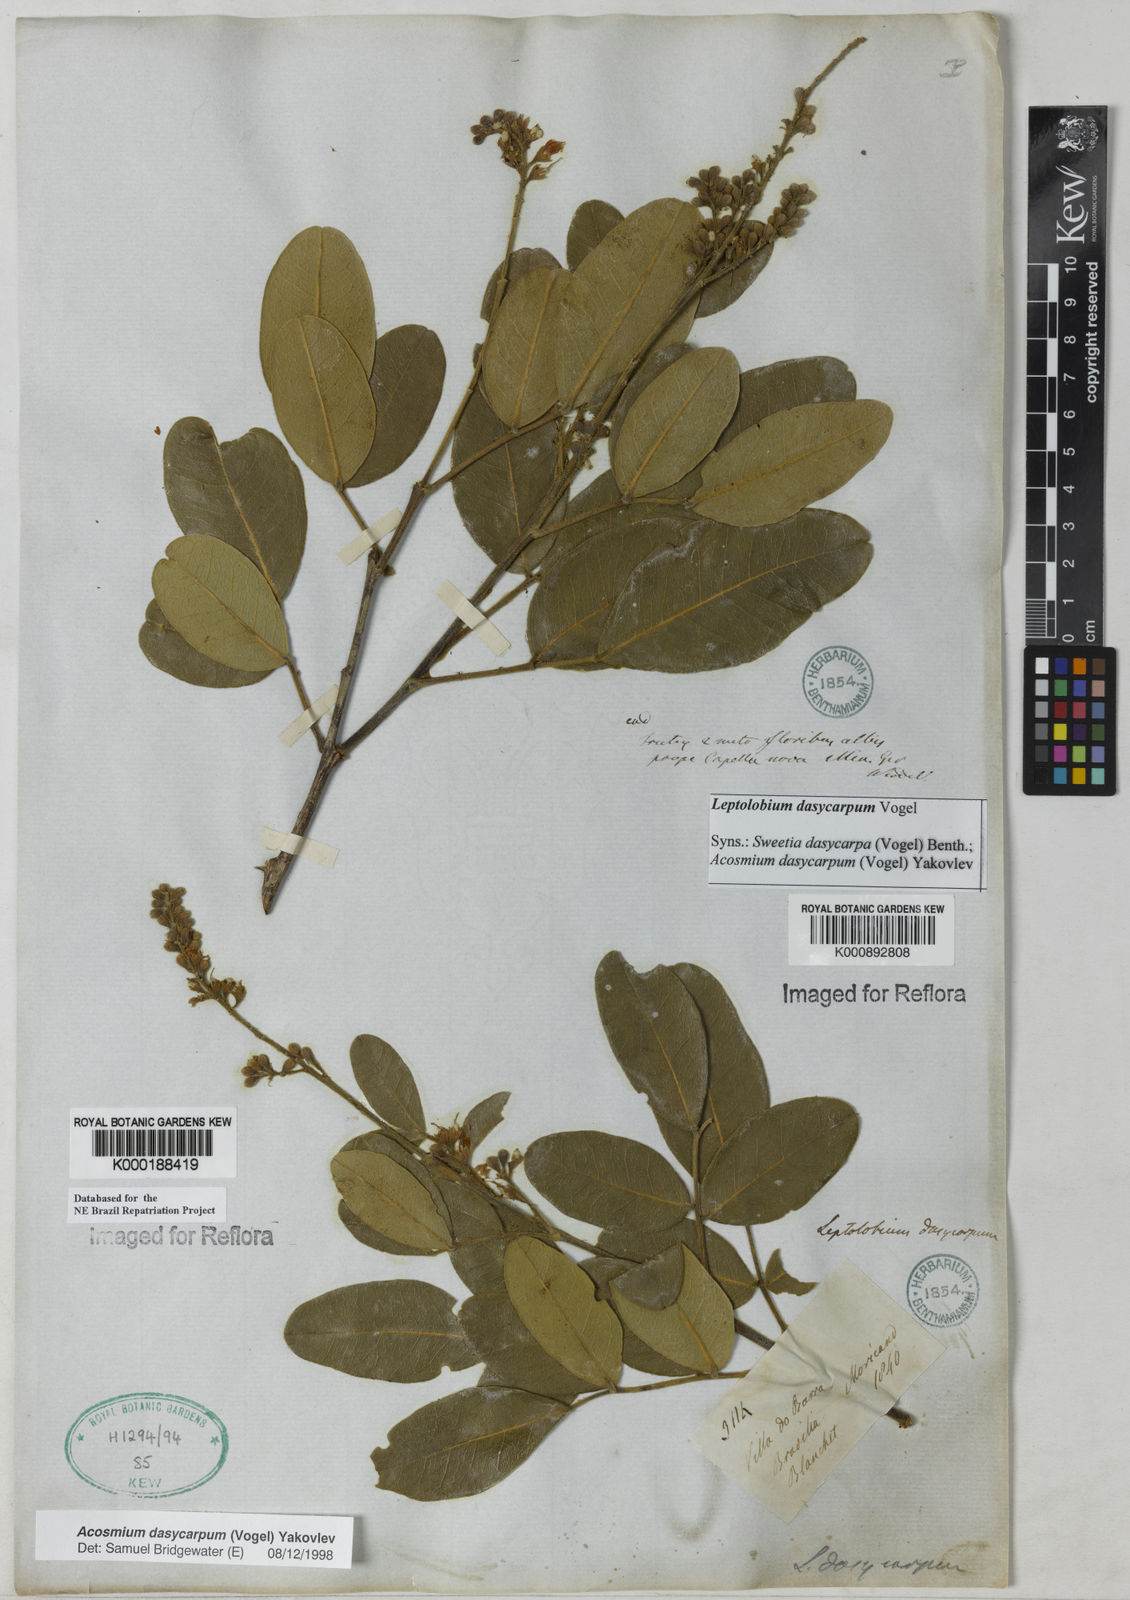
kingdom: Plantae
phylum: Tracheophyta
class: Magnoliopsida
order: Fabales
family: Fabaceae
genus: Leptolobium
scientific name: Leptolobium dasycarpum
